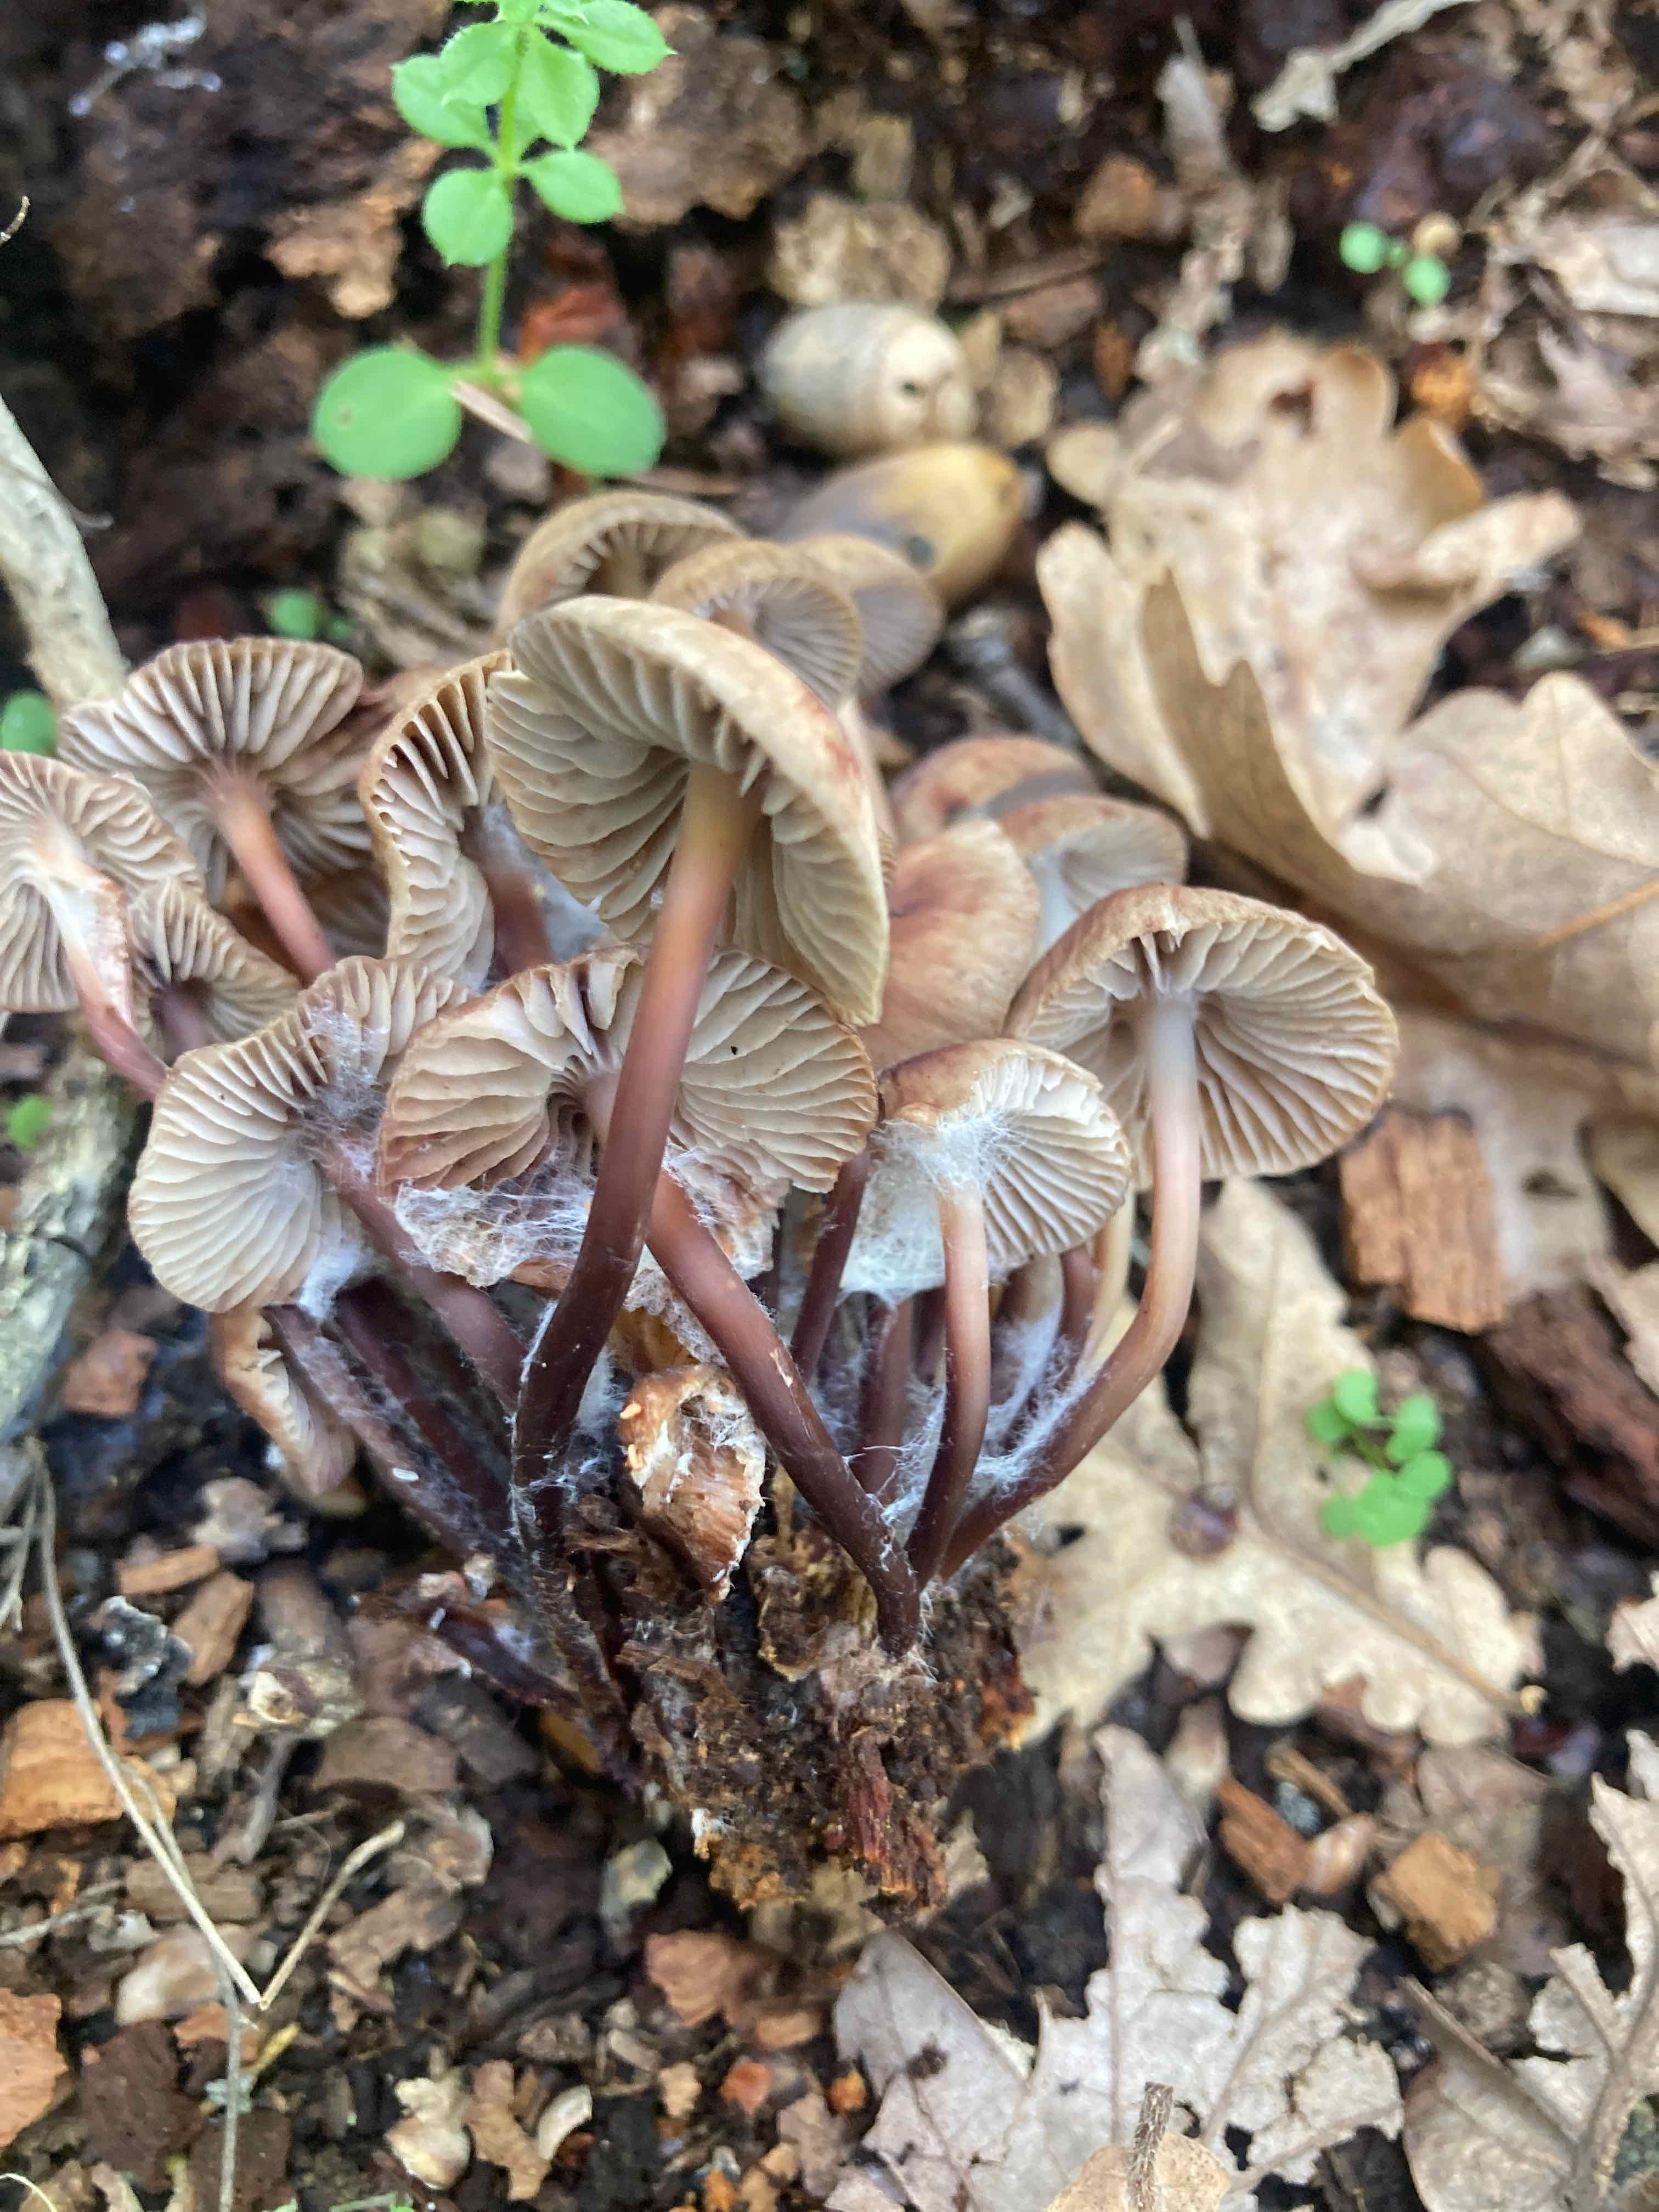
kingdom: Fungi
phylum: Basidiomycota
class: Agaricomycetes
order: Agaricales
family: Mycenaceae
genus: Mycena
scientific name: Mycena maculata
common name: rødplettet huesvamp
